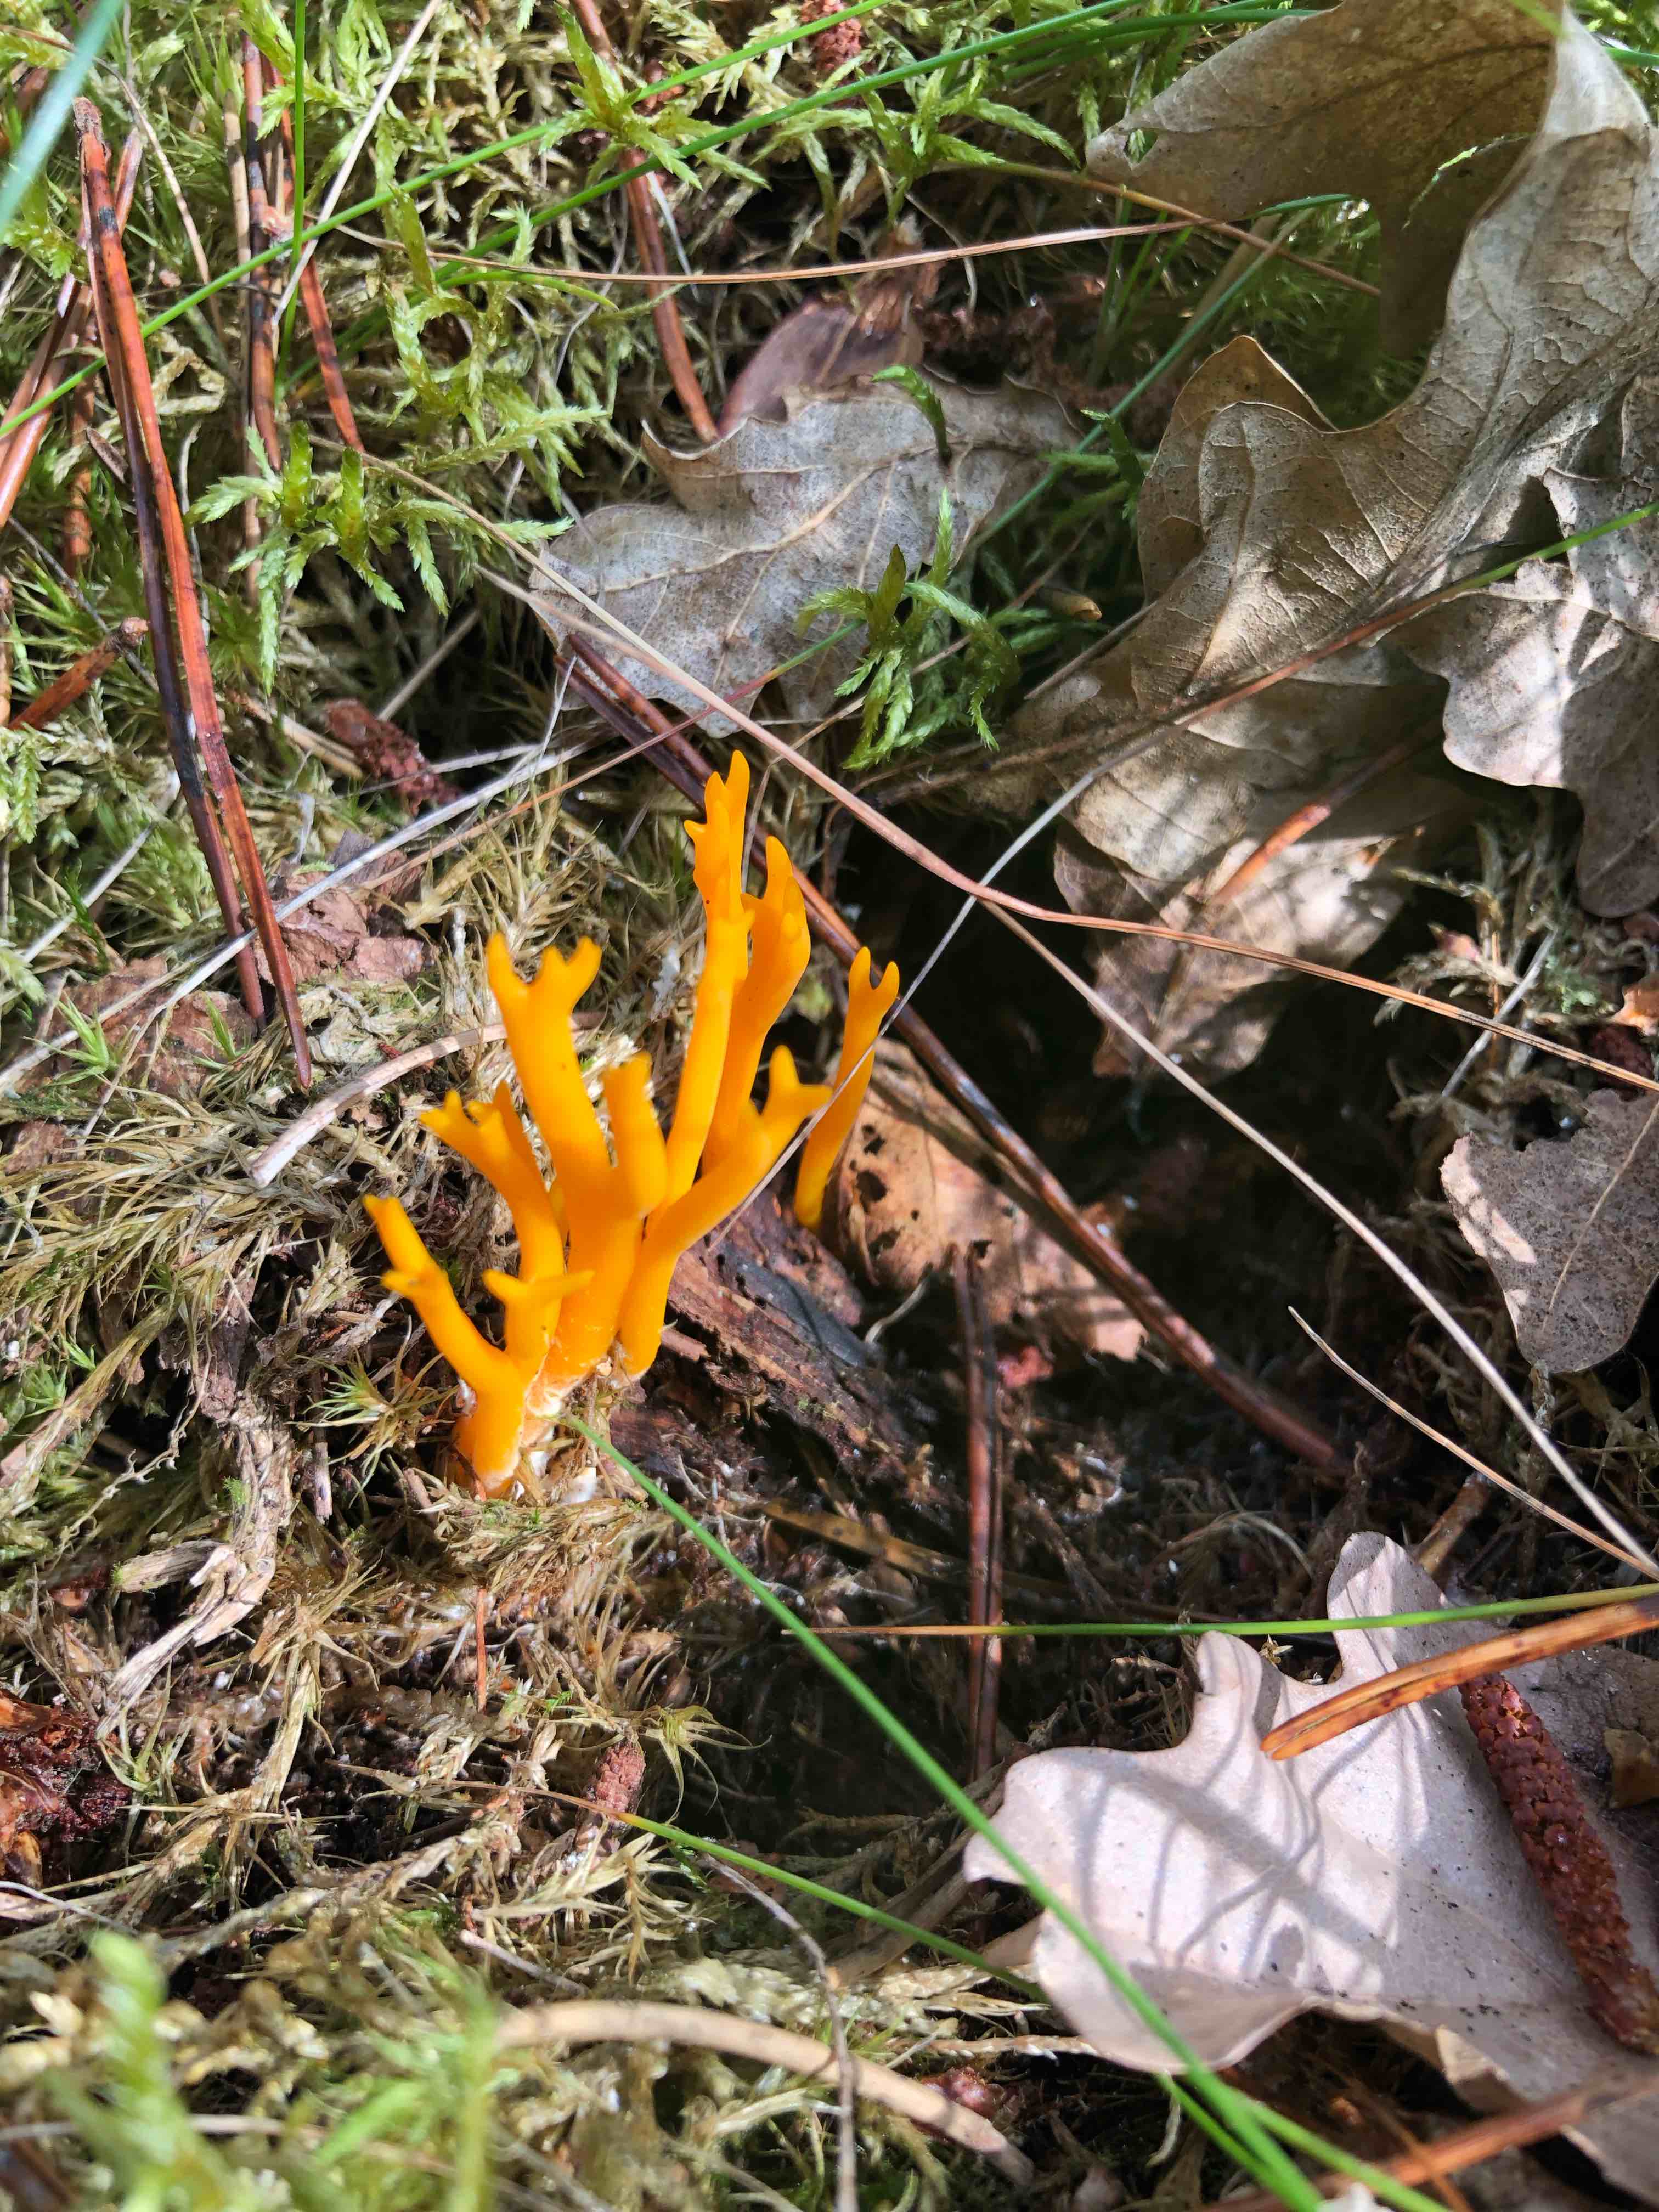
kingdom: Fungi
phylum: Basidiomycota
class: Dacrymycetes
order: Dacrymycetales
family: Dacrymycetaceae
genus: Calocera
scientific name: Calocera viscosa
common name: almindelig guldgaffel
